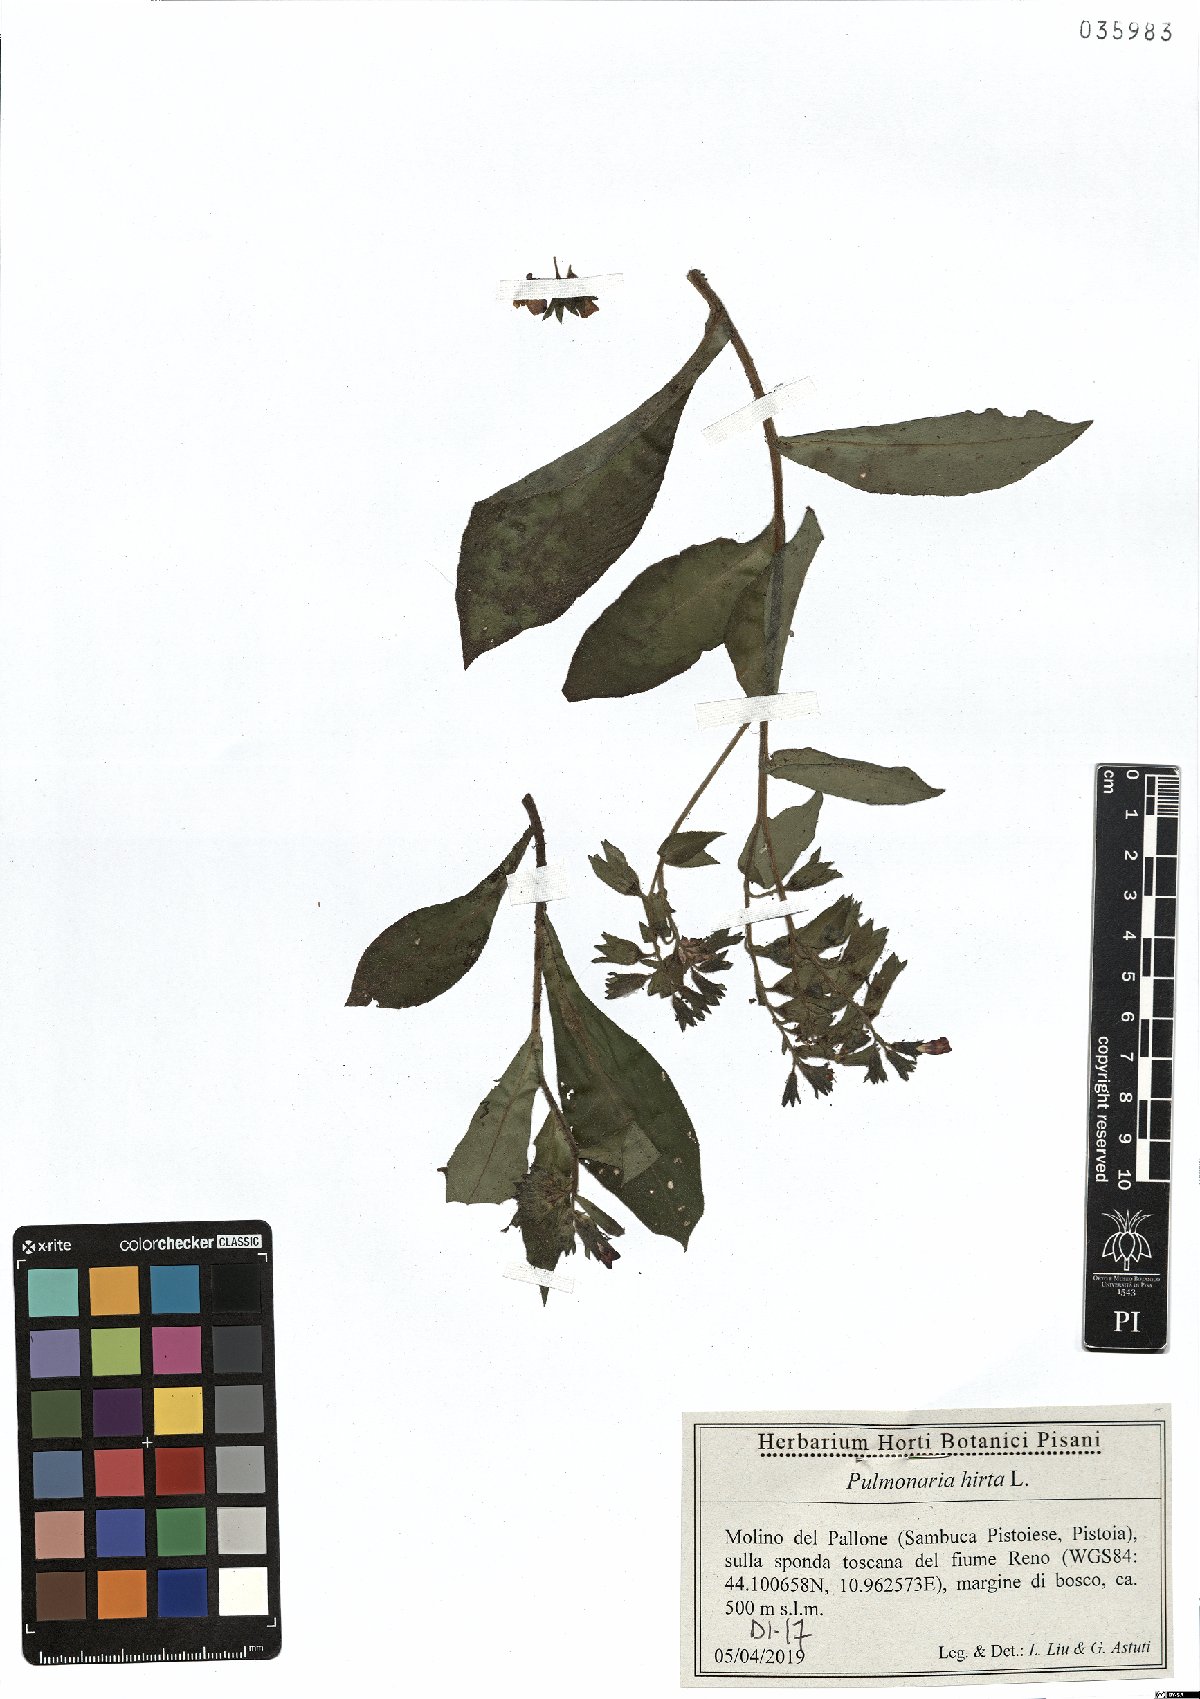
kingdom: Plantae
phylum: Tracheophyta
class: Magnoliopsida
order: Boraginales
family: Boraginaceae
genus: Pulmonaria
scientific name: Pulmonaria hirta
